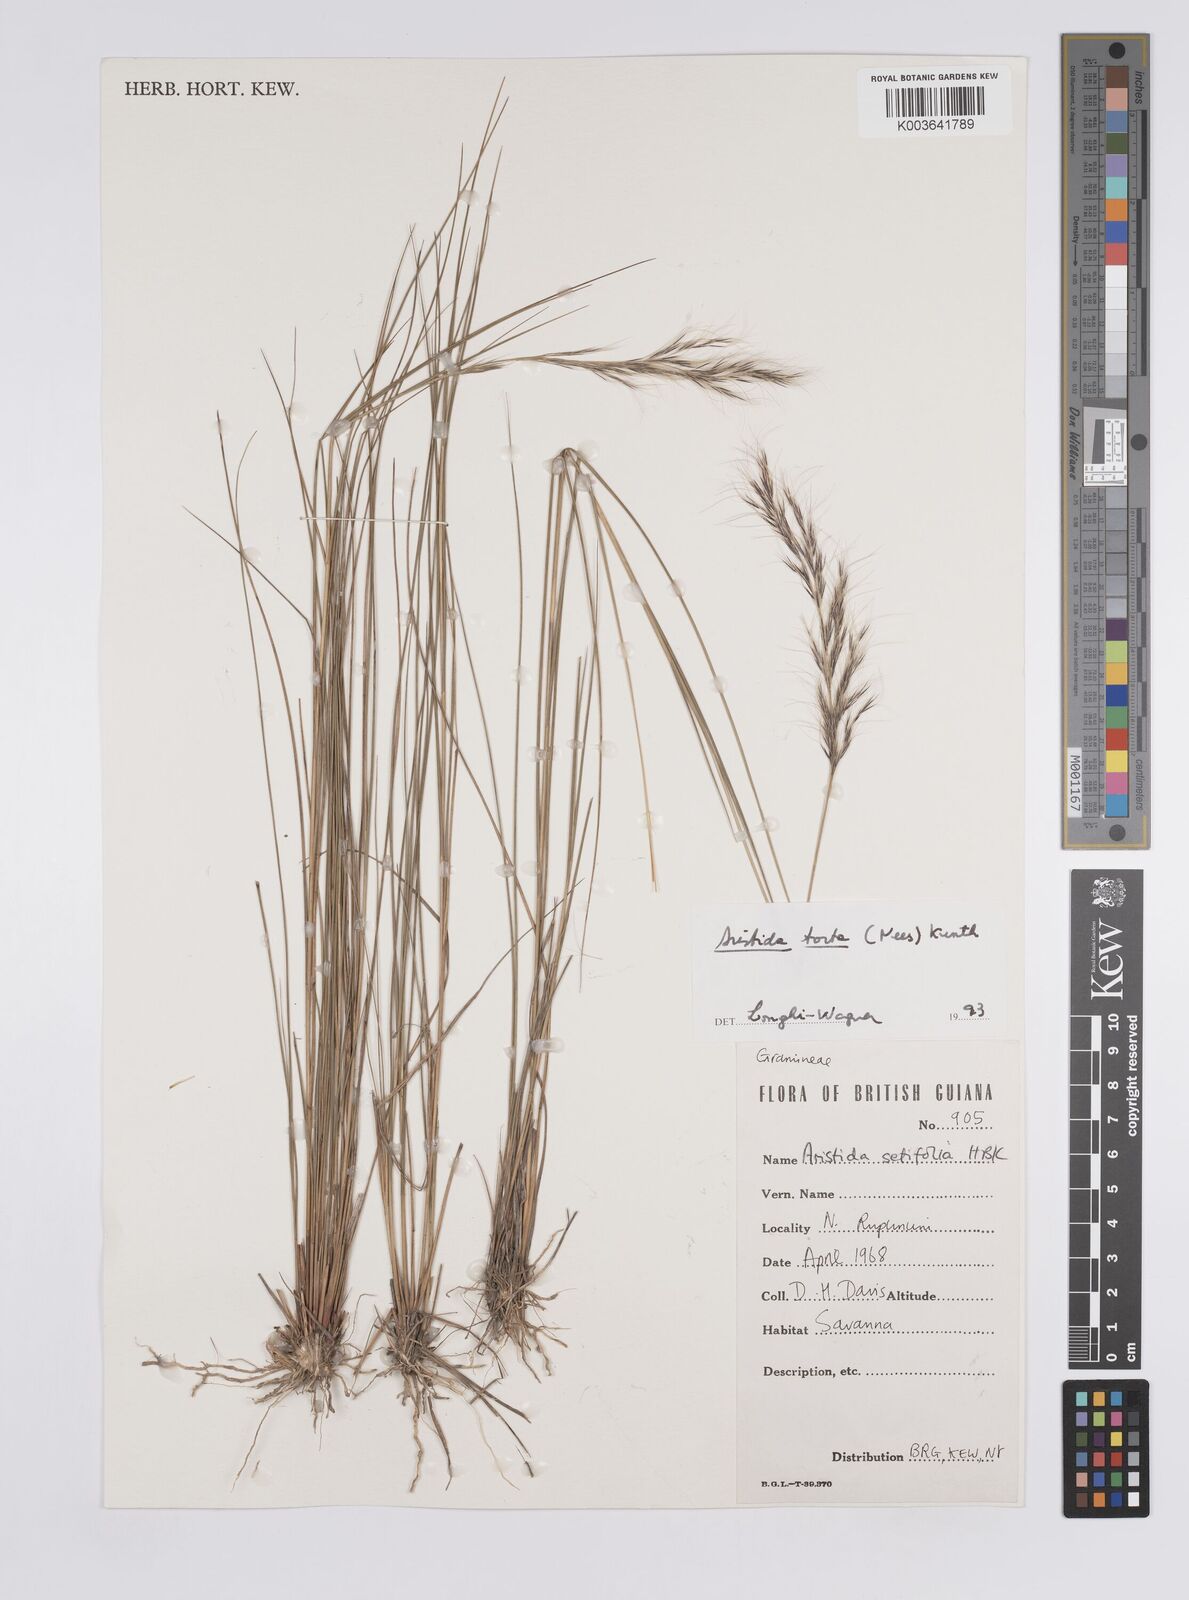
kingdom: Plantae
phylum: Tracheophyta
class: Liliopsida
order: Poales
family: Poaceae
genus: Aristida
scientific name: Aristida torta
